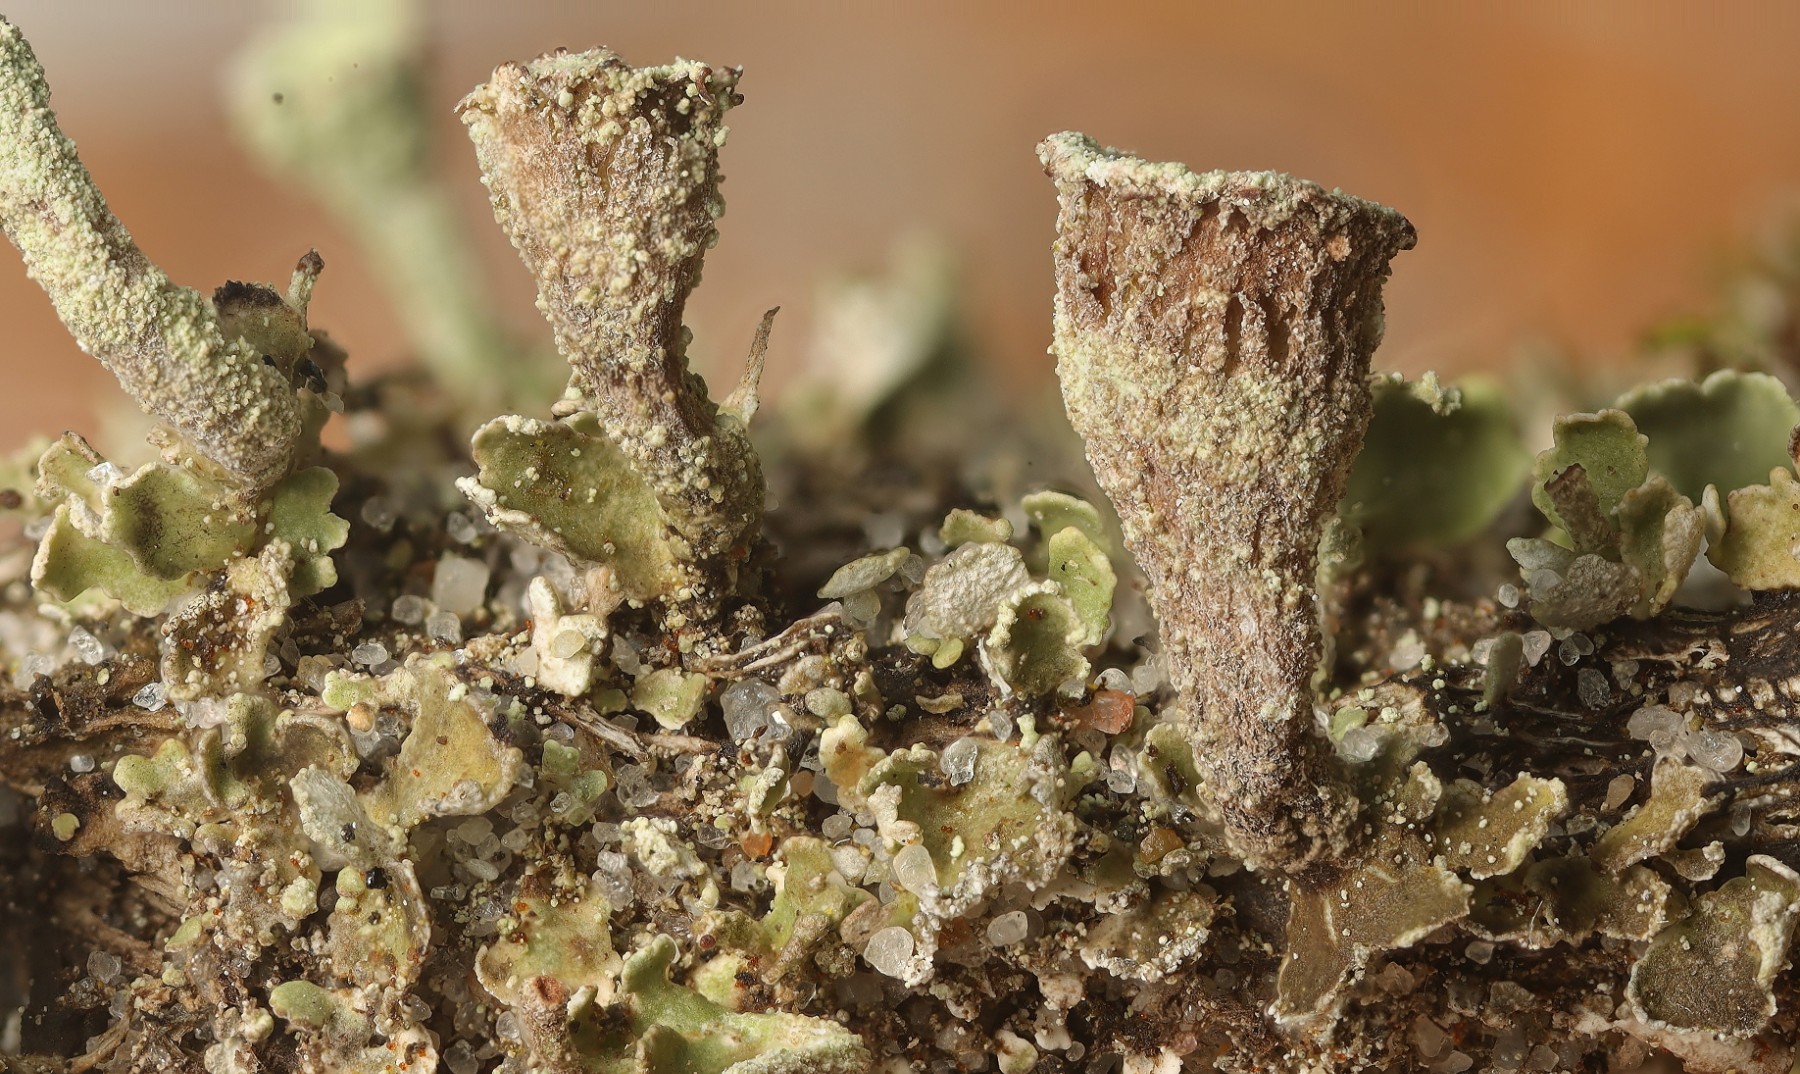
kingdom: Fungi
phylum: Ascomycota
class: Lecanoromycetes
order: Lecanorales
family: Cladoniaceae
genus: Cladonia
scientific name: Cladonia
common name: brungrøn bægerlav
